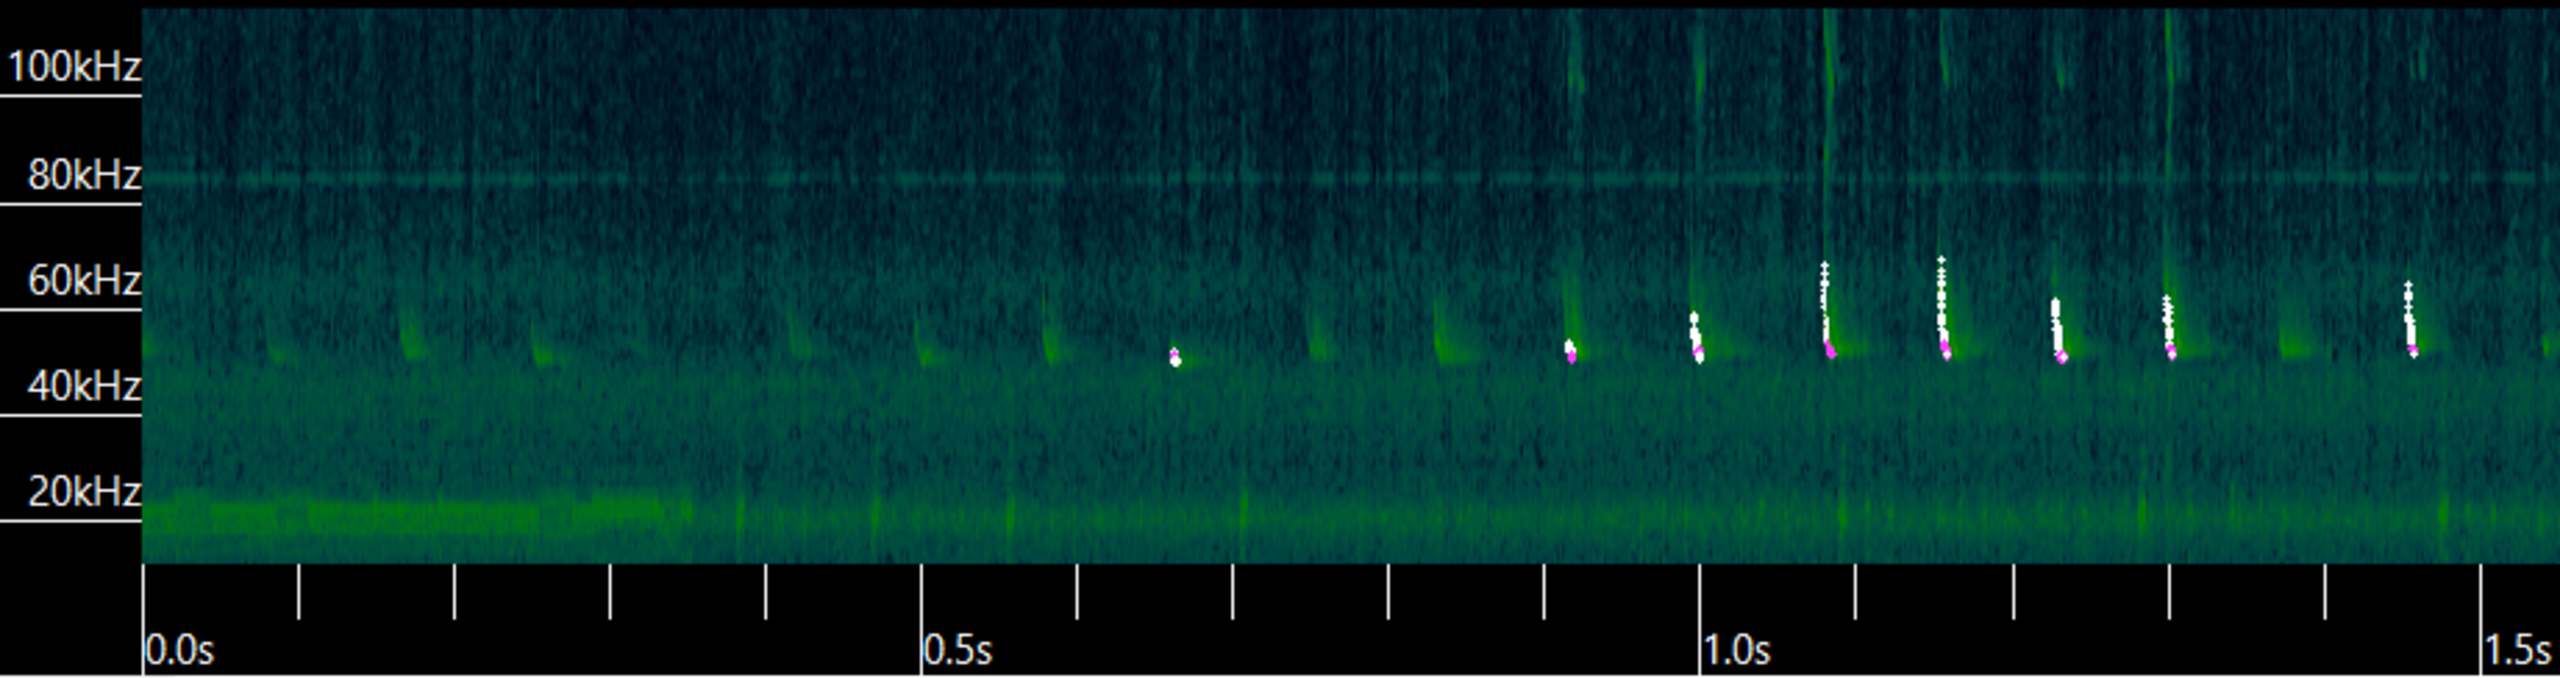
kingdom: Animalia
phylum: Chordata
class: Mammalia
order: Chiroptera
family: Vespertilionidae
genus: Pipistrellus
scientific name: Pipistrellus pygmaeus
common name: Dværgflagermus
